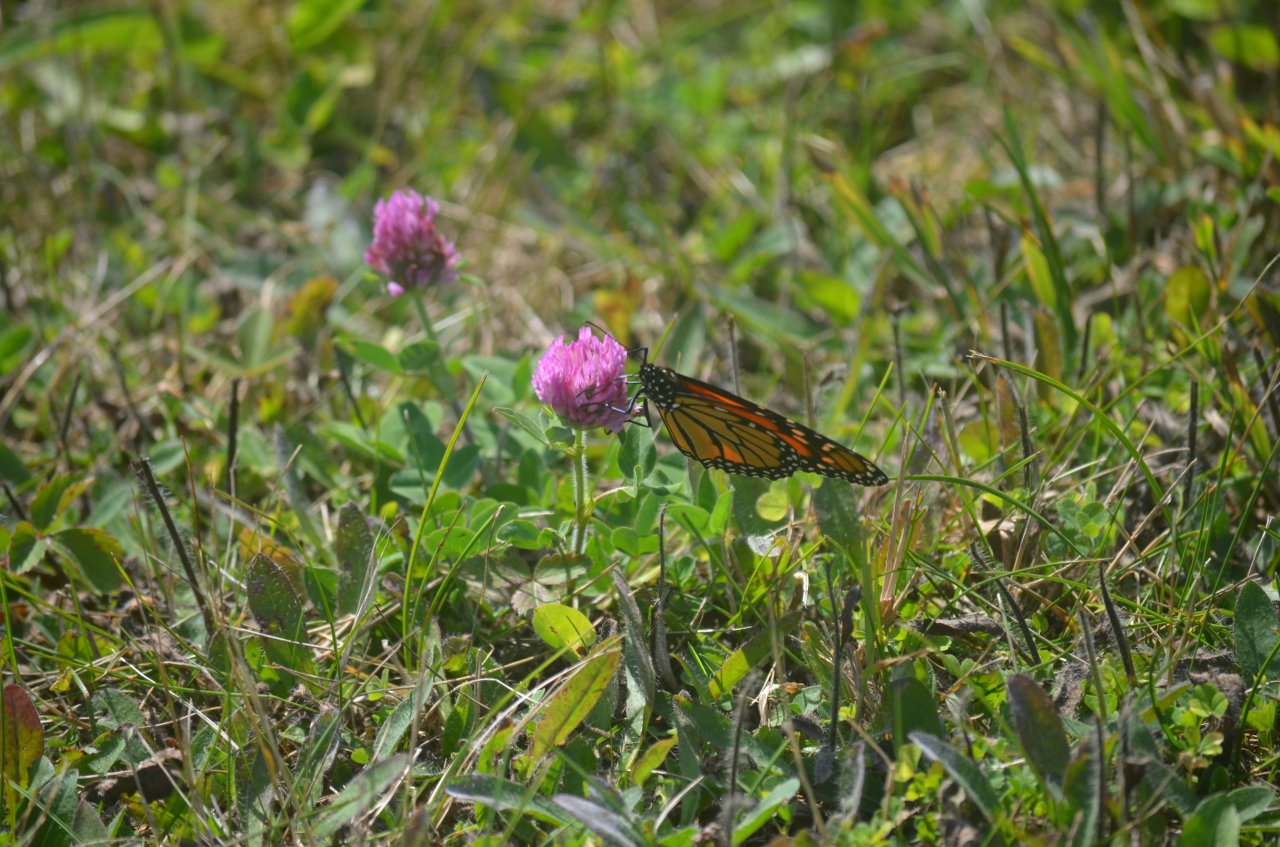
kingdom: Animalia
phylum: Arthropoda
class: Insecta
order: Lepidoptera
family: Nymphalidae
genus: Danaus
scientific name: Danaus plexippus
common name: Monarch
